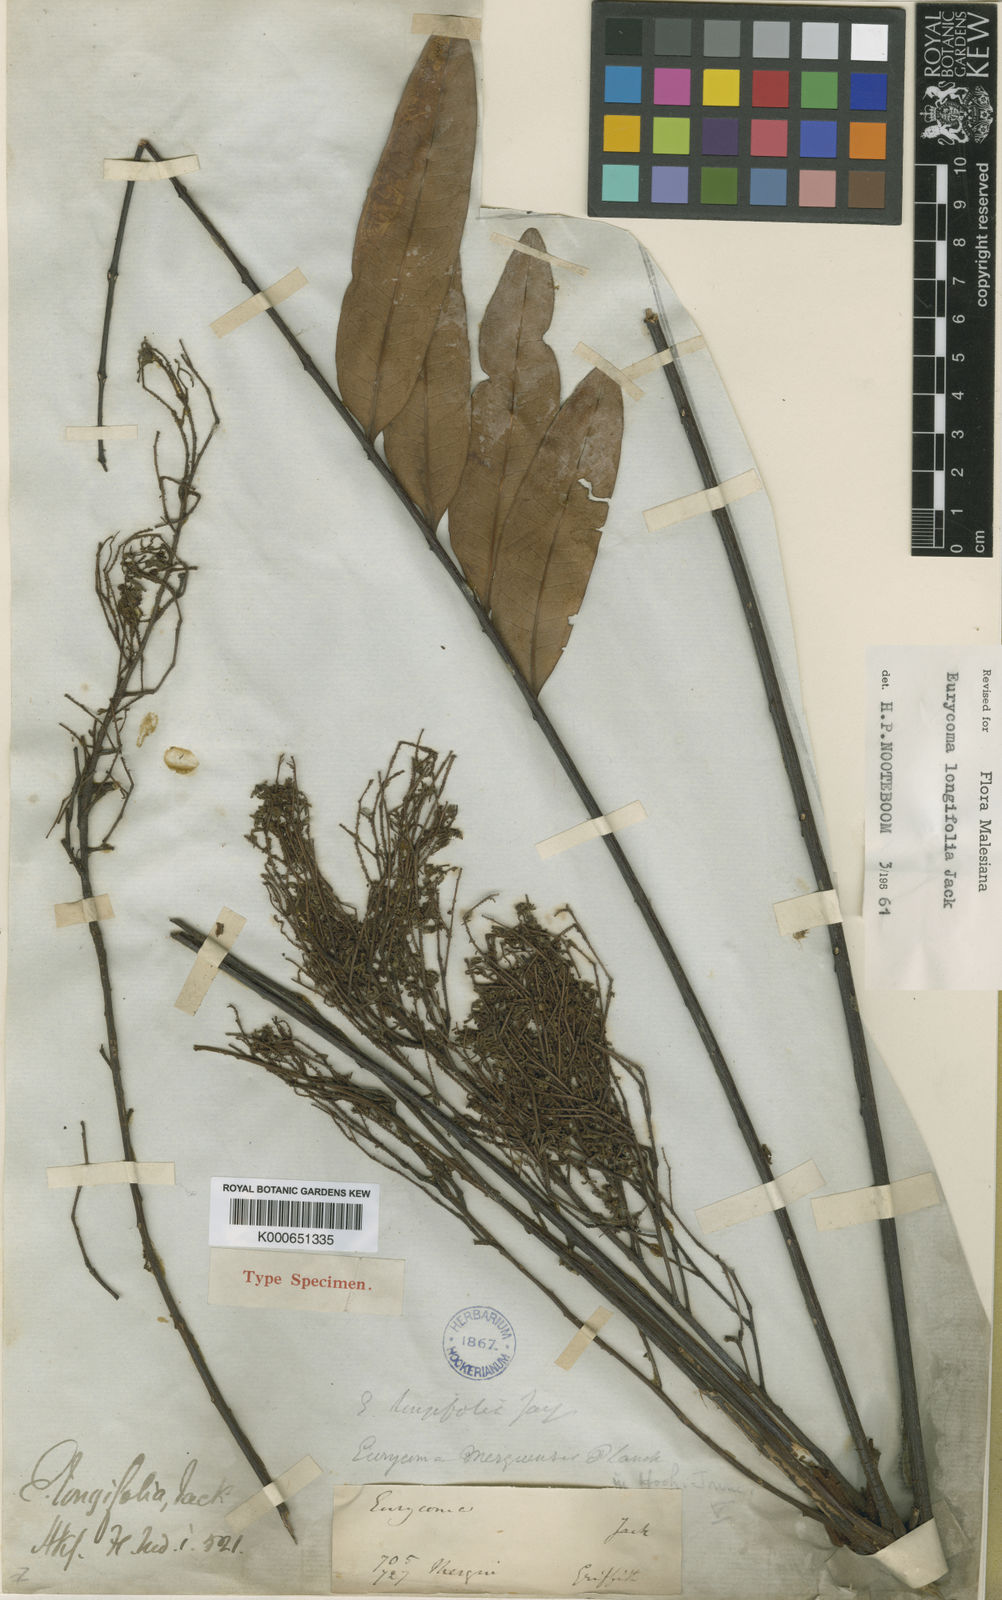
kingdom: Plantae
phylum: Tracheophyta
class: Magnoliopsida
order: Sapindales
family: Simaroubaceae
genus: Eurycoma
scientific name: Eurycoma longifolia
